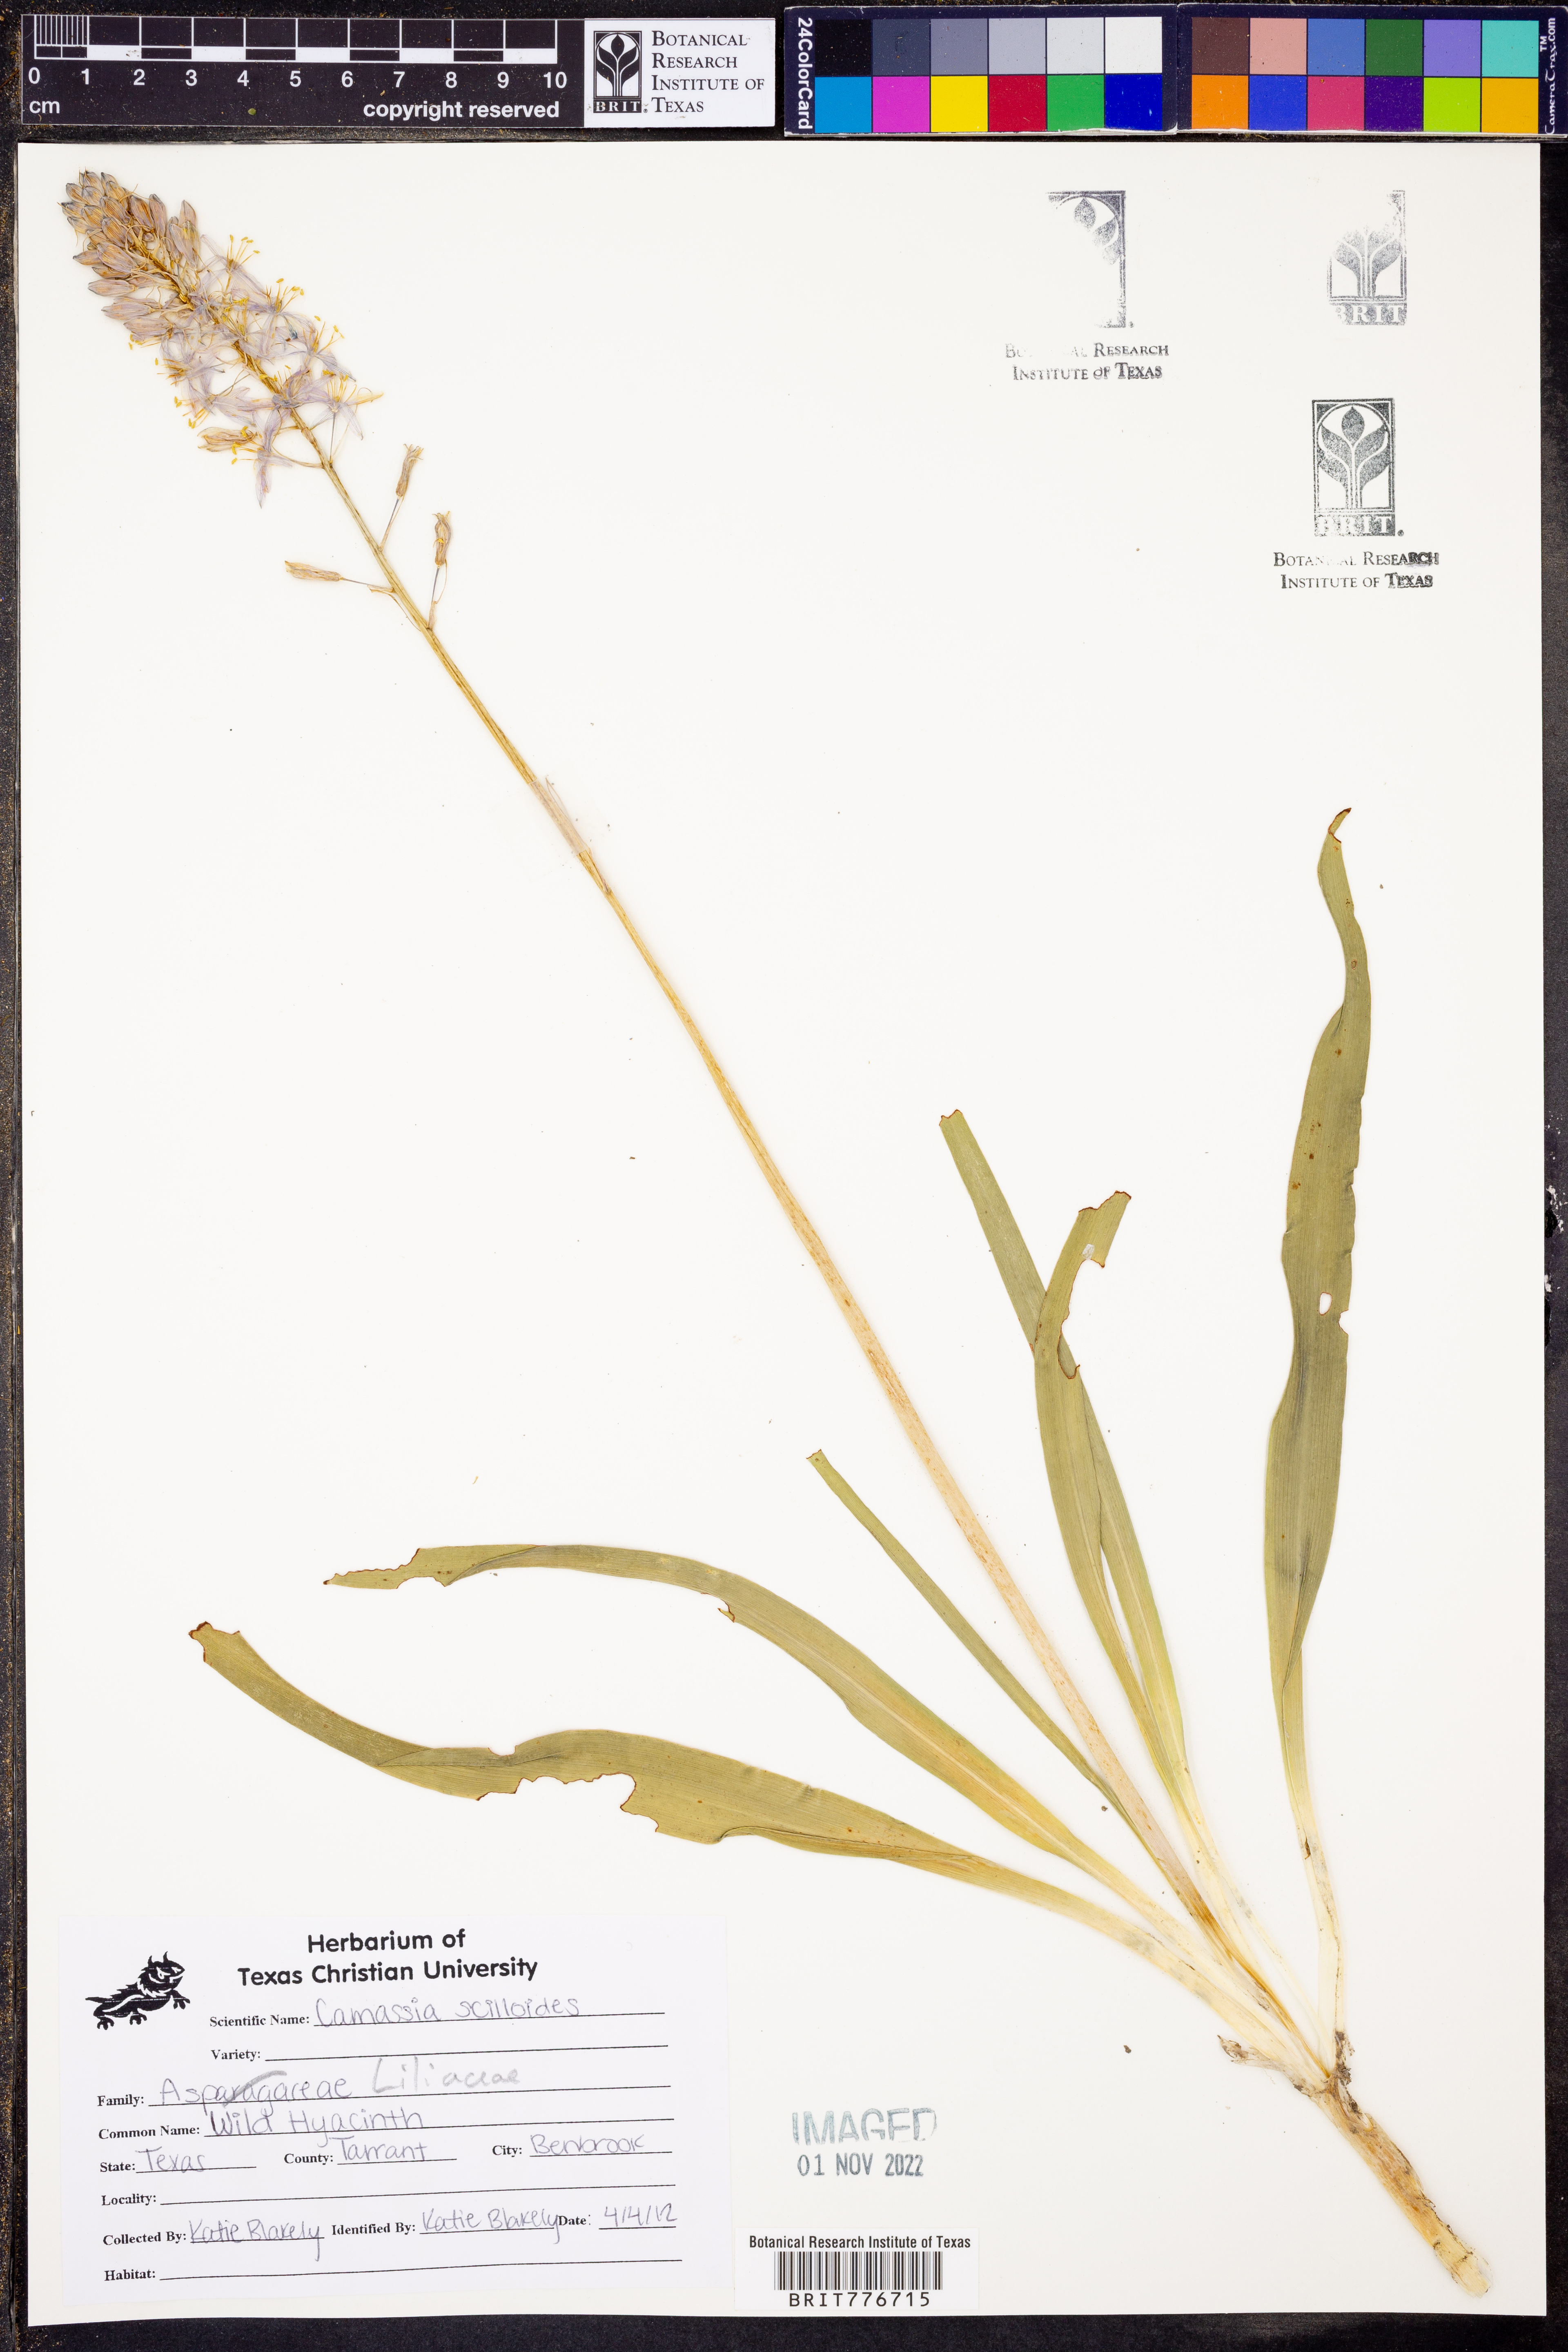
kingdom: Plantae
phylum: Tracheophyta
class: Liliopsida
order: Asparagales
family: Asparagaceae
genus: Camassia
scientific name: Camassia scilloides
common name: Wild hyacinth
